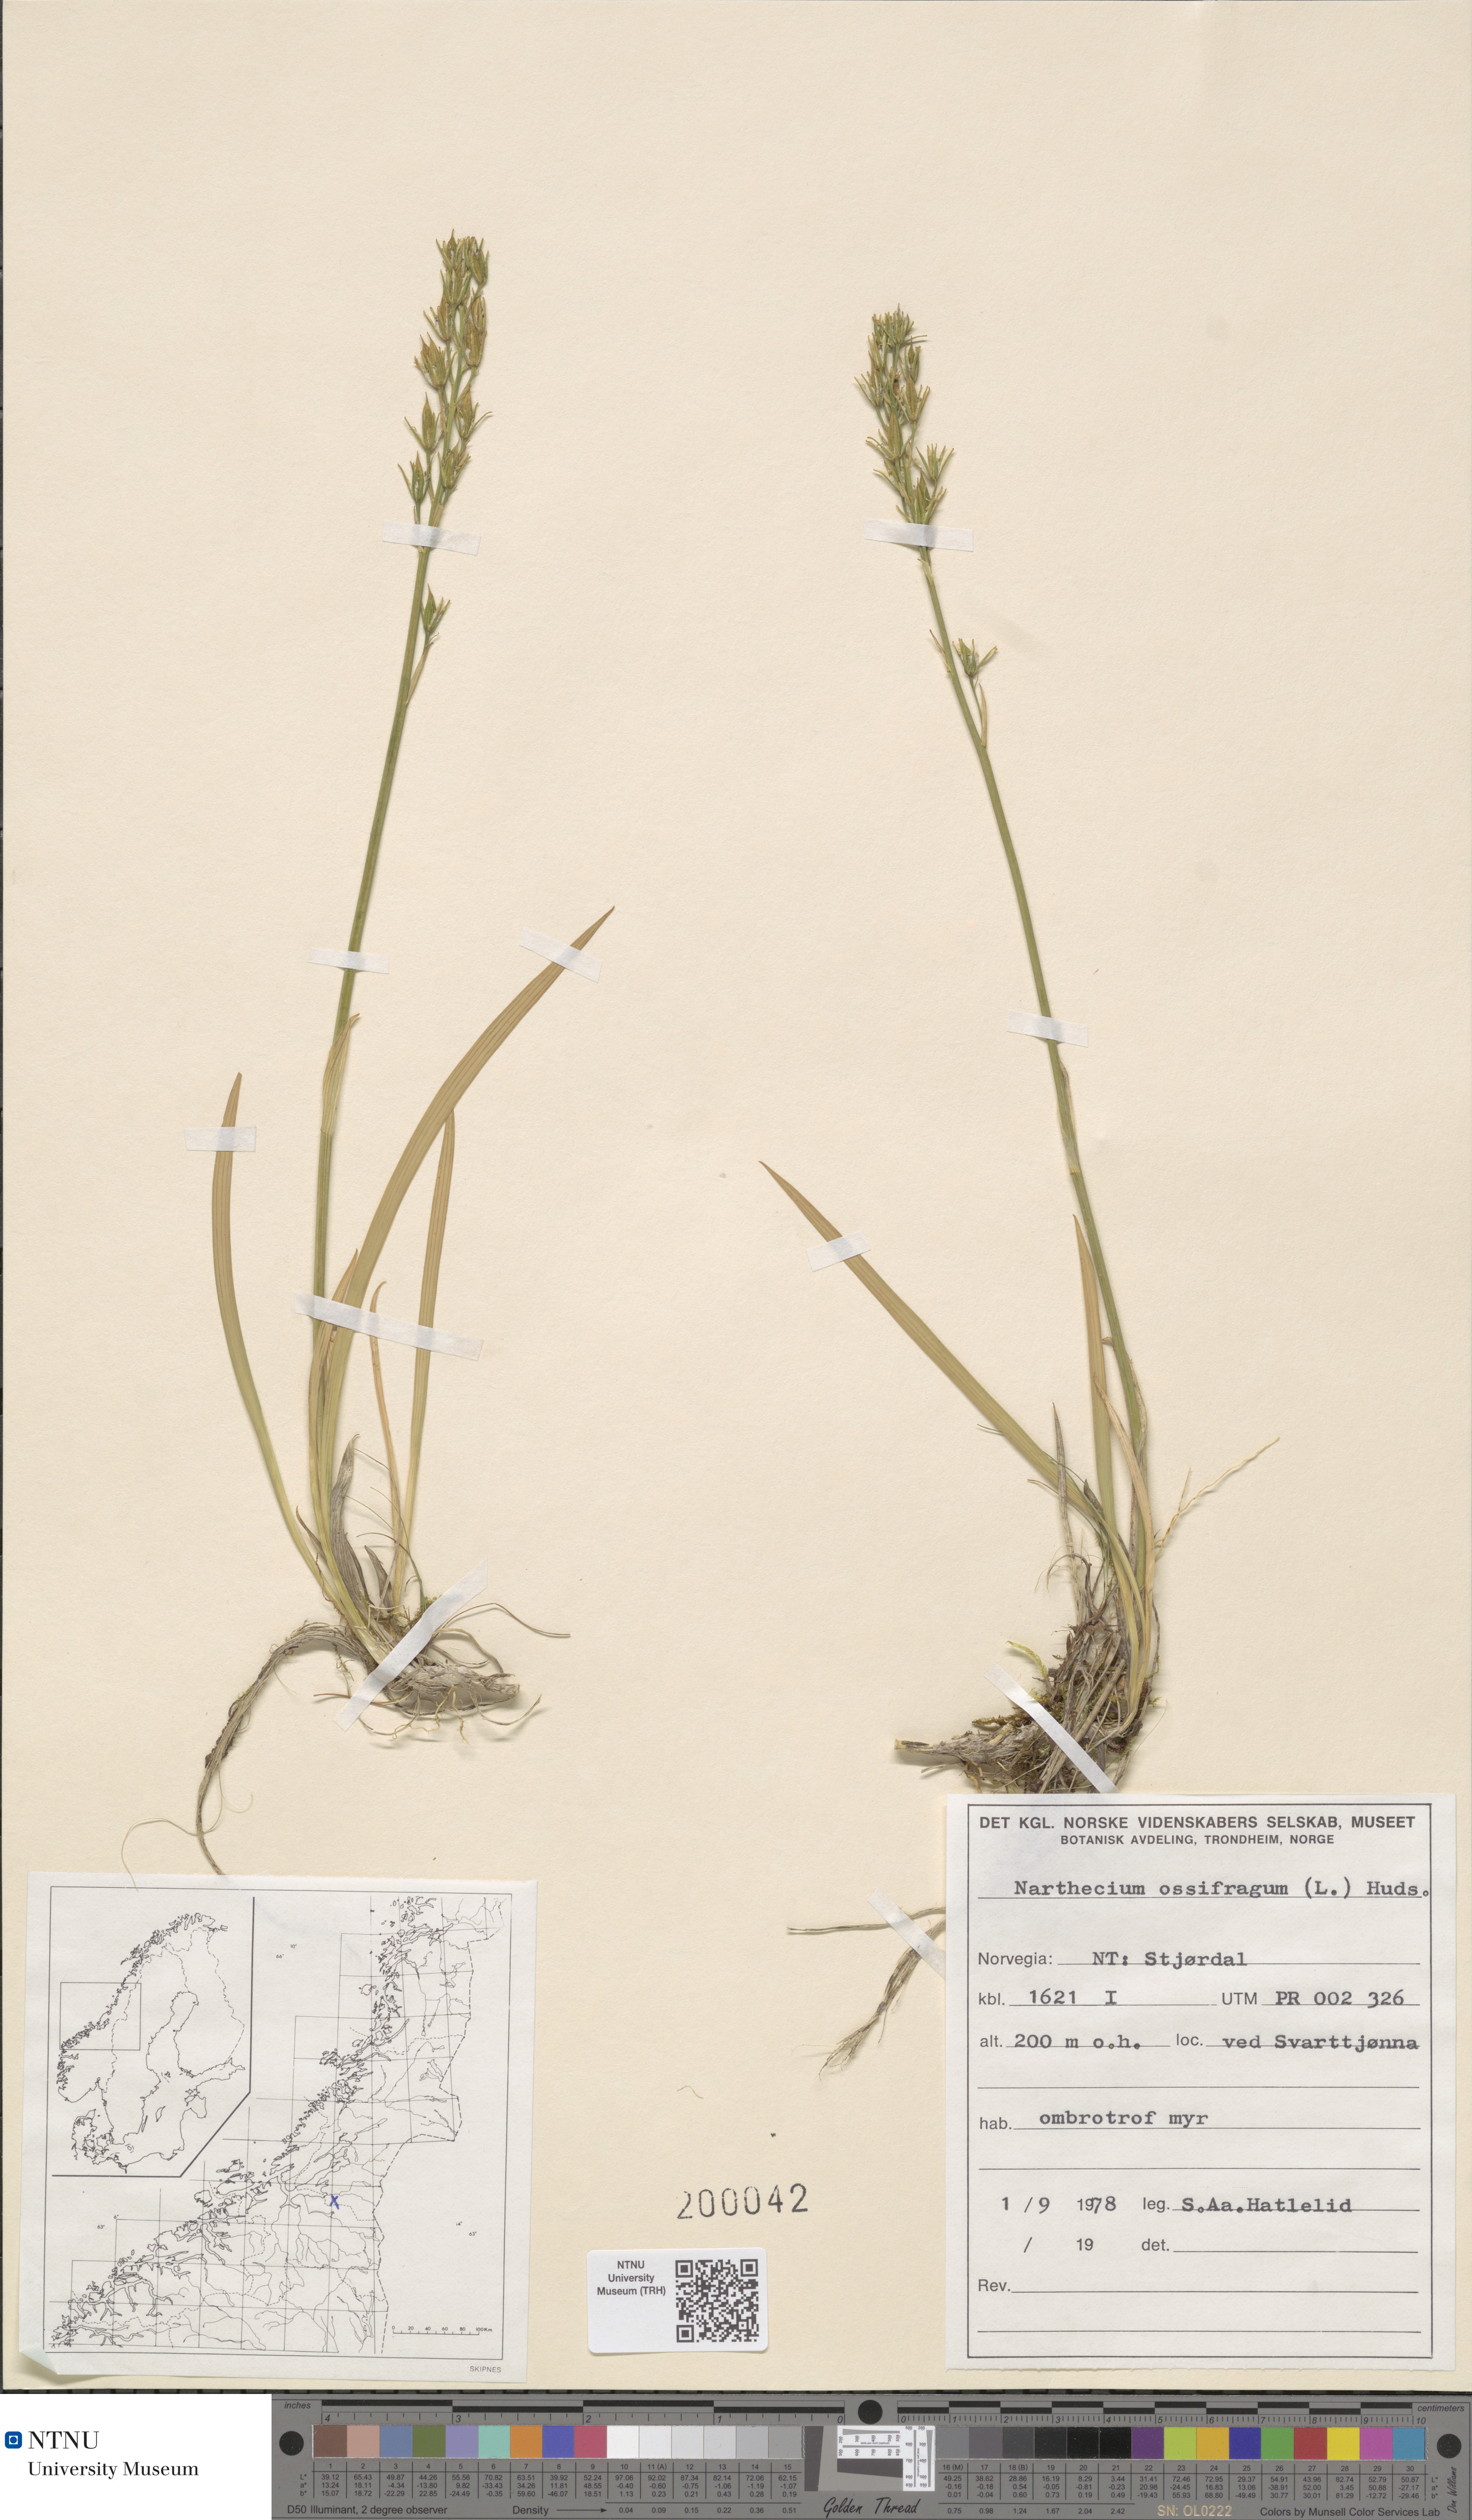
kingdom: Plantae
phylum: Tracheophyta
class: Liliopsida
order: Dioscoreales
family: Nartheciaceae
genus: Narthecium
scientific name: Narthecium ossifragum
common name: Bog asphodel
